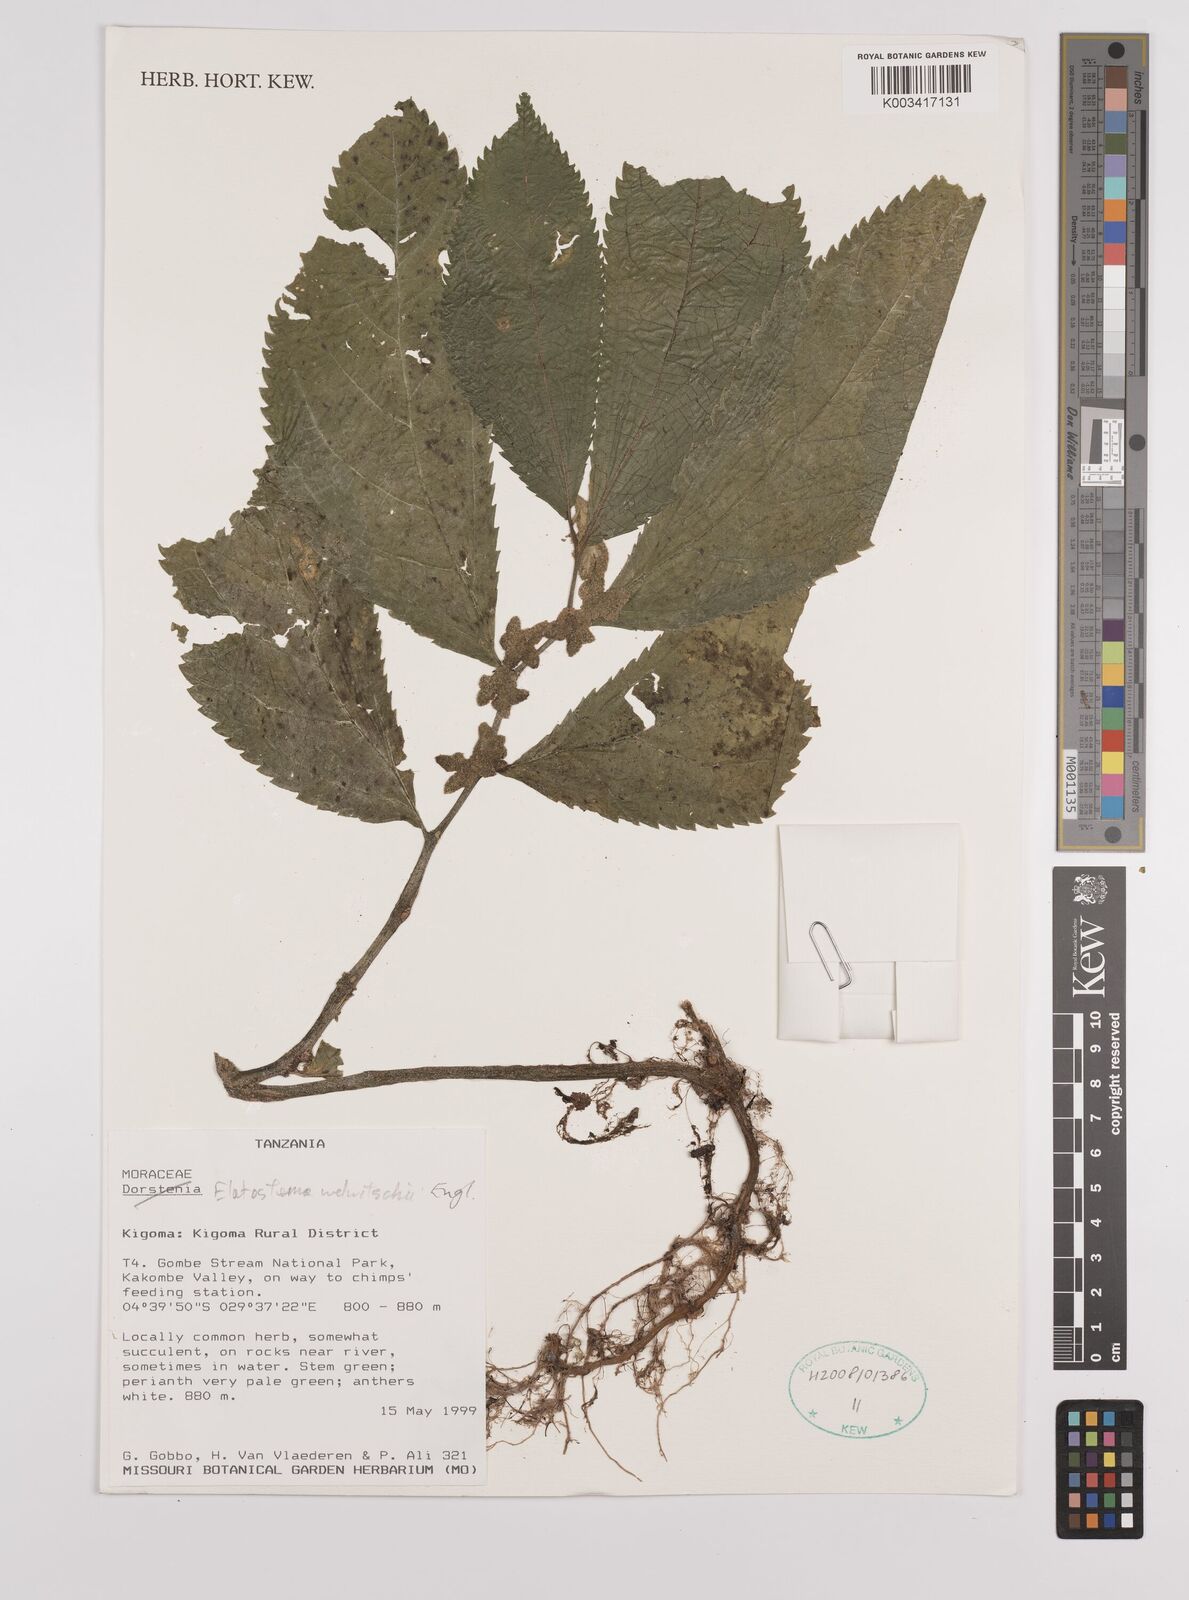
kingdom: Plantae
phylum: Tracheophyta
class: Magnoliopsida
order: Rosales
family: Urticaceae
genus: Elatostema
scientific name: Elatostema welwitschii
